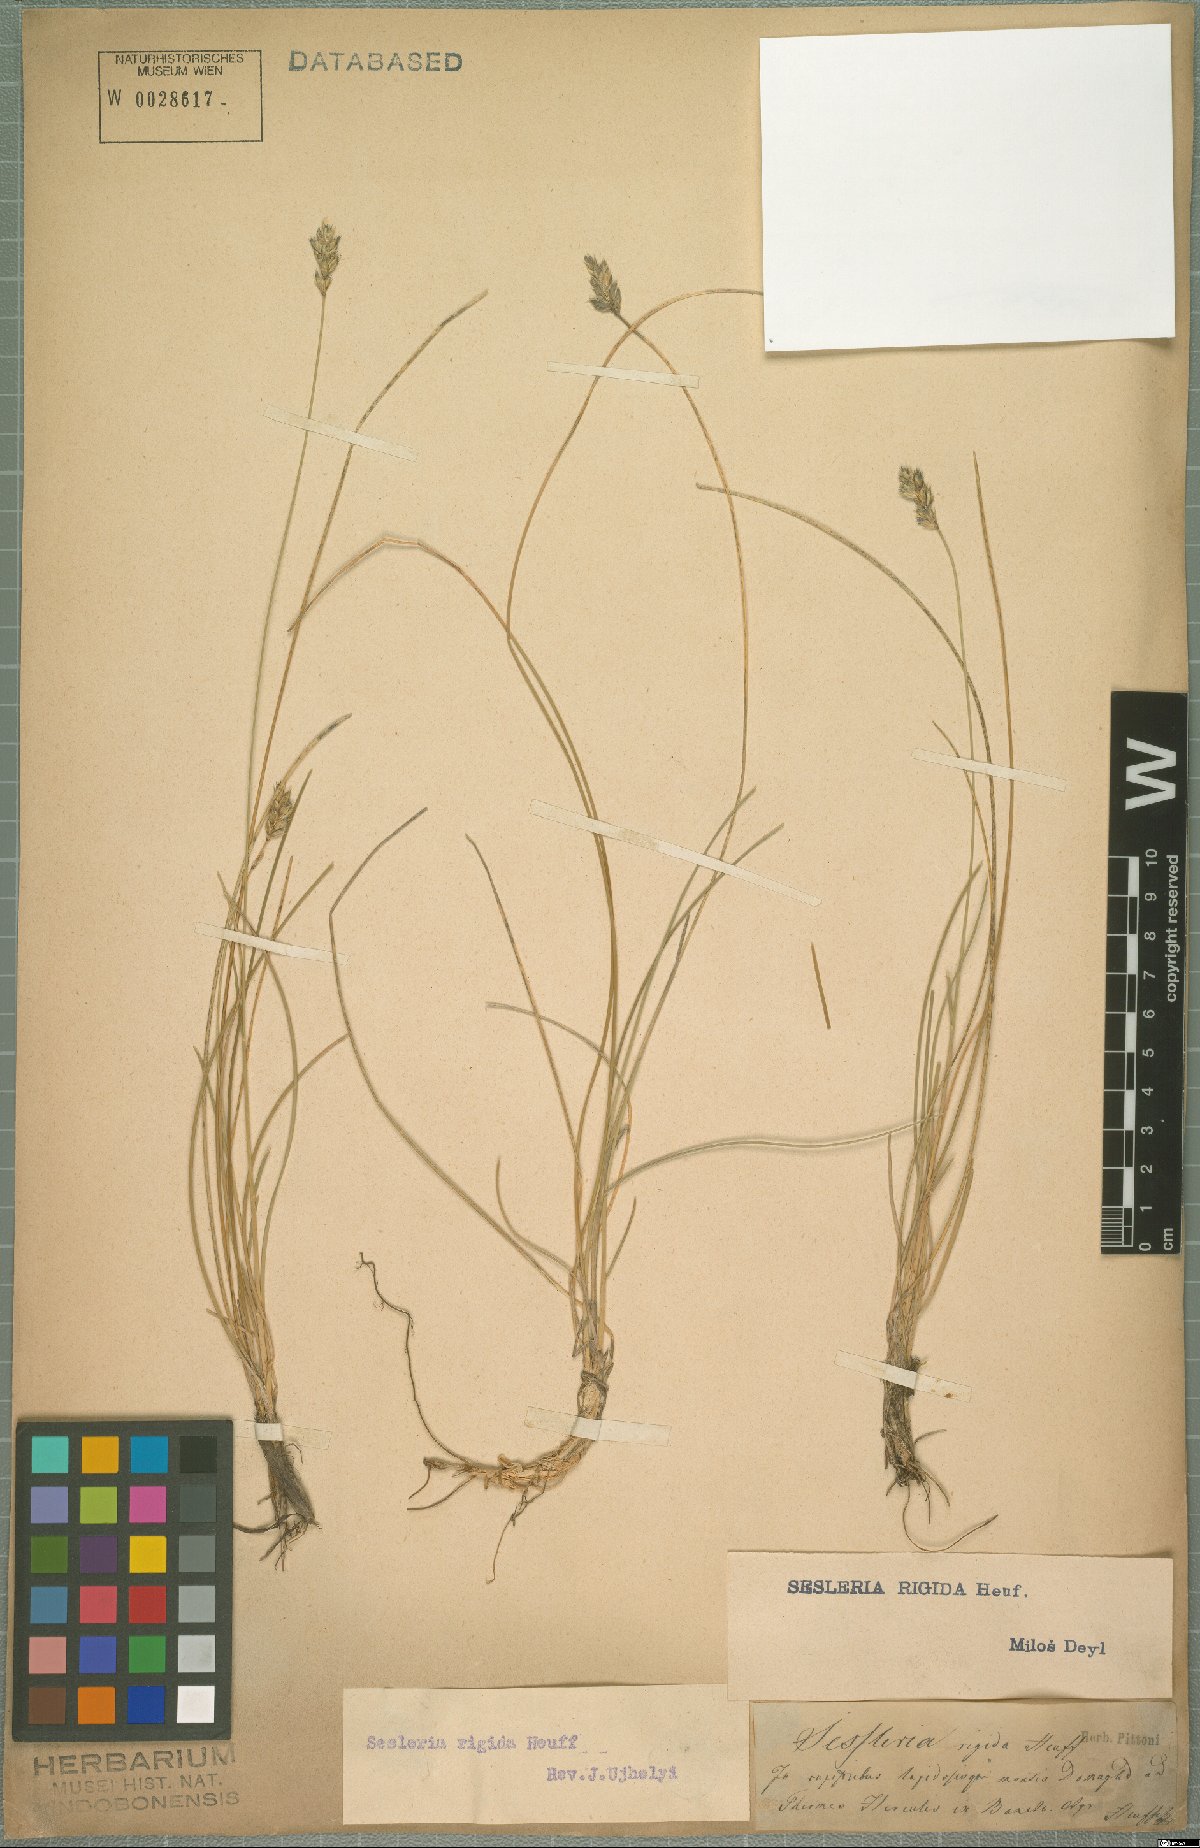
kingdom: Plantae
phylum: Tracheophyta
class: Liliopsida
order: Poales
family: Poaceae
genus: Sesleria
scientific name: Sesleria rigida
